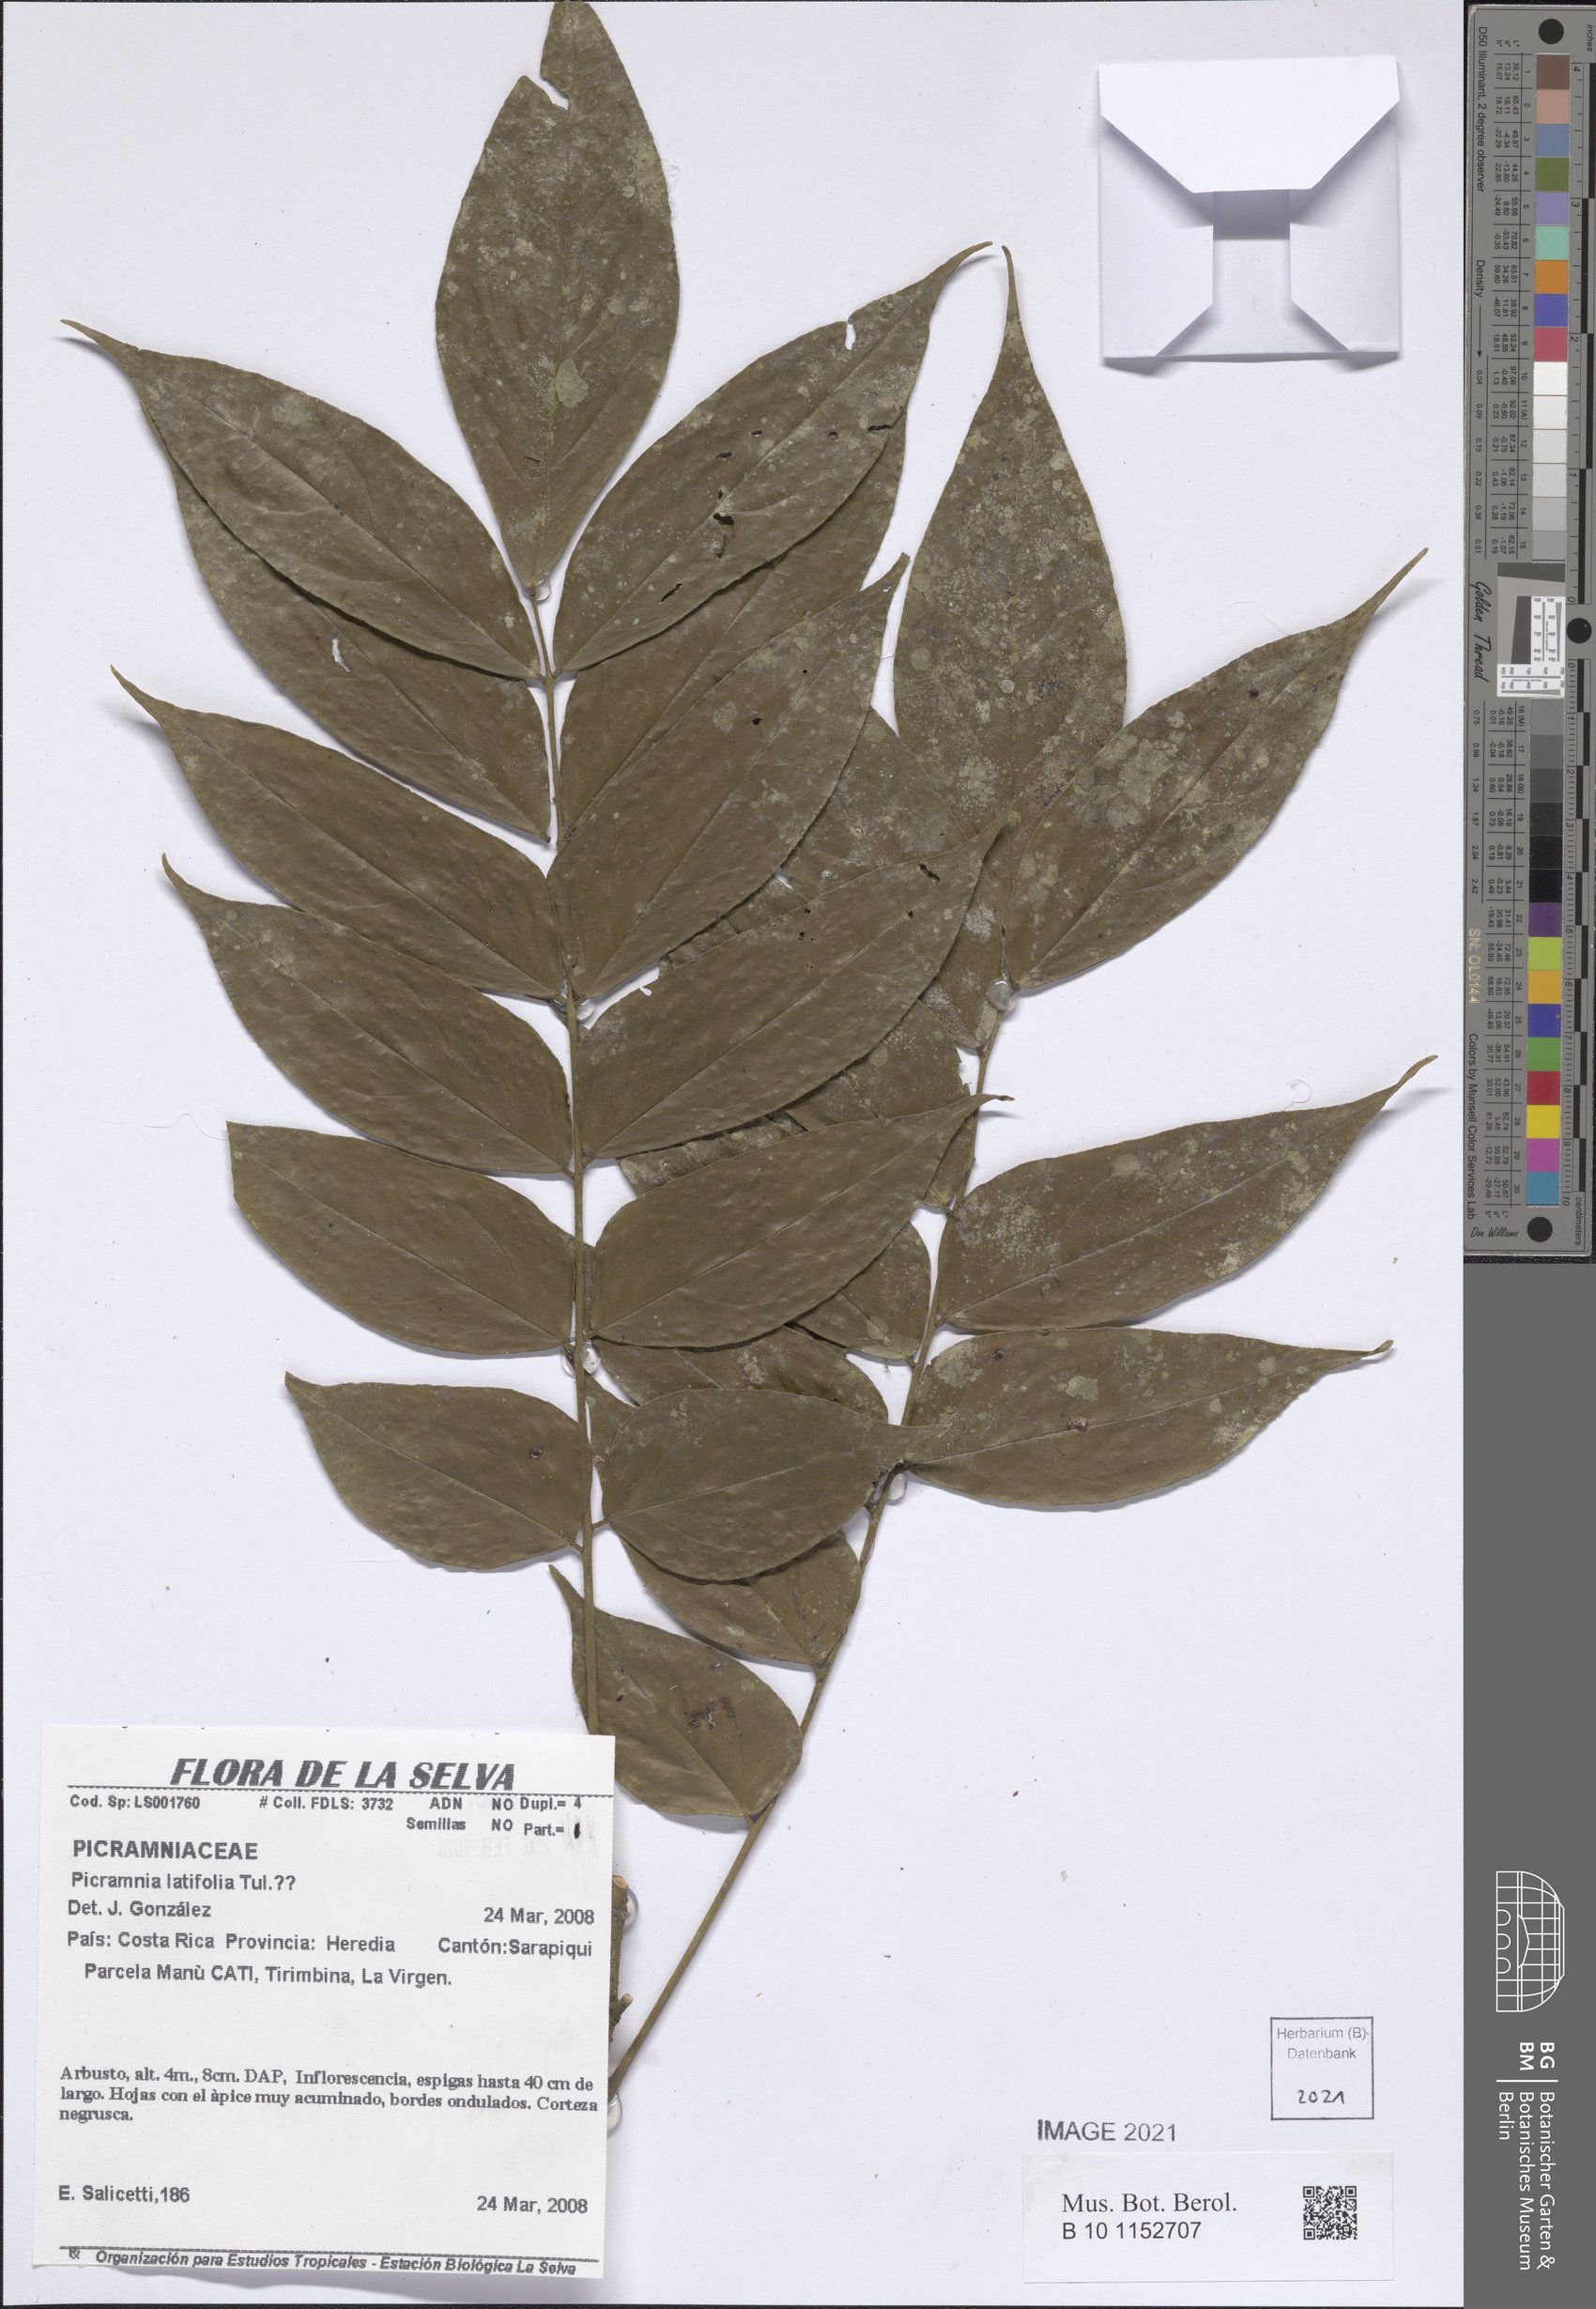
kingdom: Plantae
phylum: Tracheophyta
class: Magnoliopsida
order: Picramniales
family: Picramniaceae
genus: Picramnia
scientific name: Picramnia latifolia
